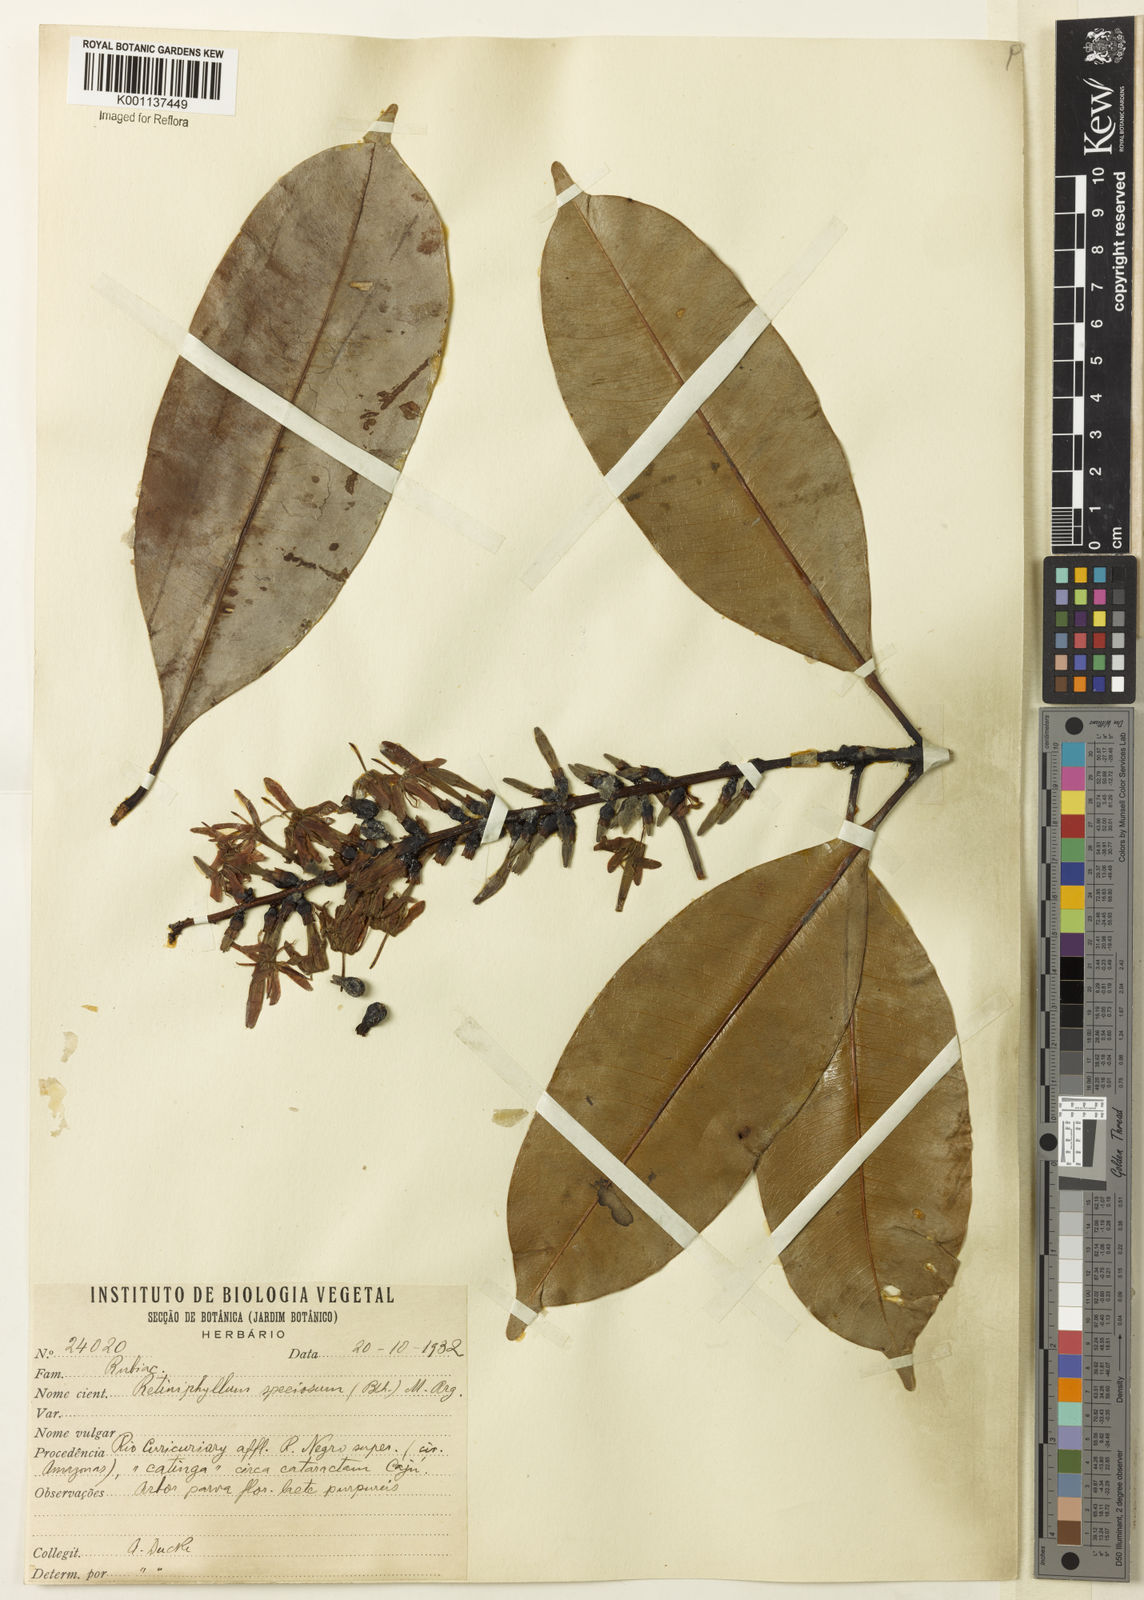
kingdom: Plantae
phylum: Tracheophyta
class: Magnoliopsida
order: Gentianales
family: Rubiaceae
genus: Retiniphyllum
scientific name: Retiniphyllum
